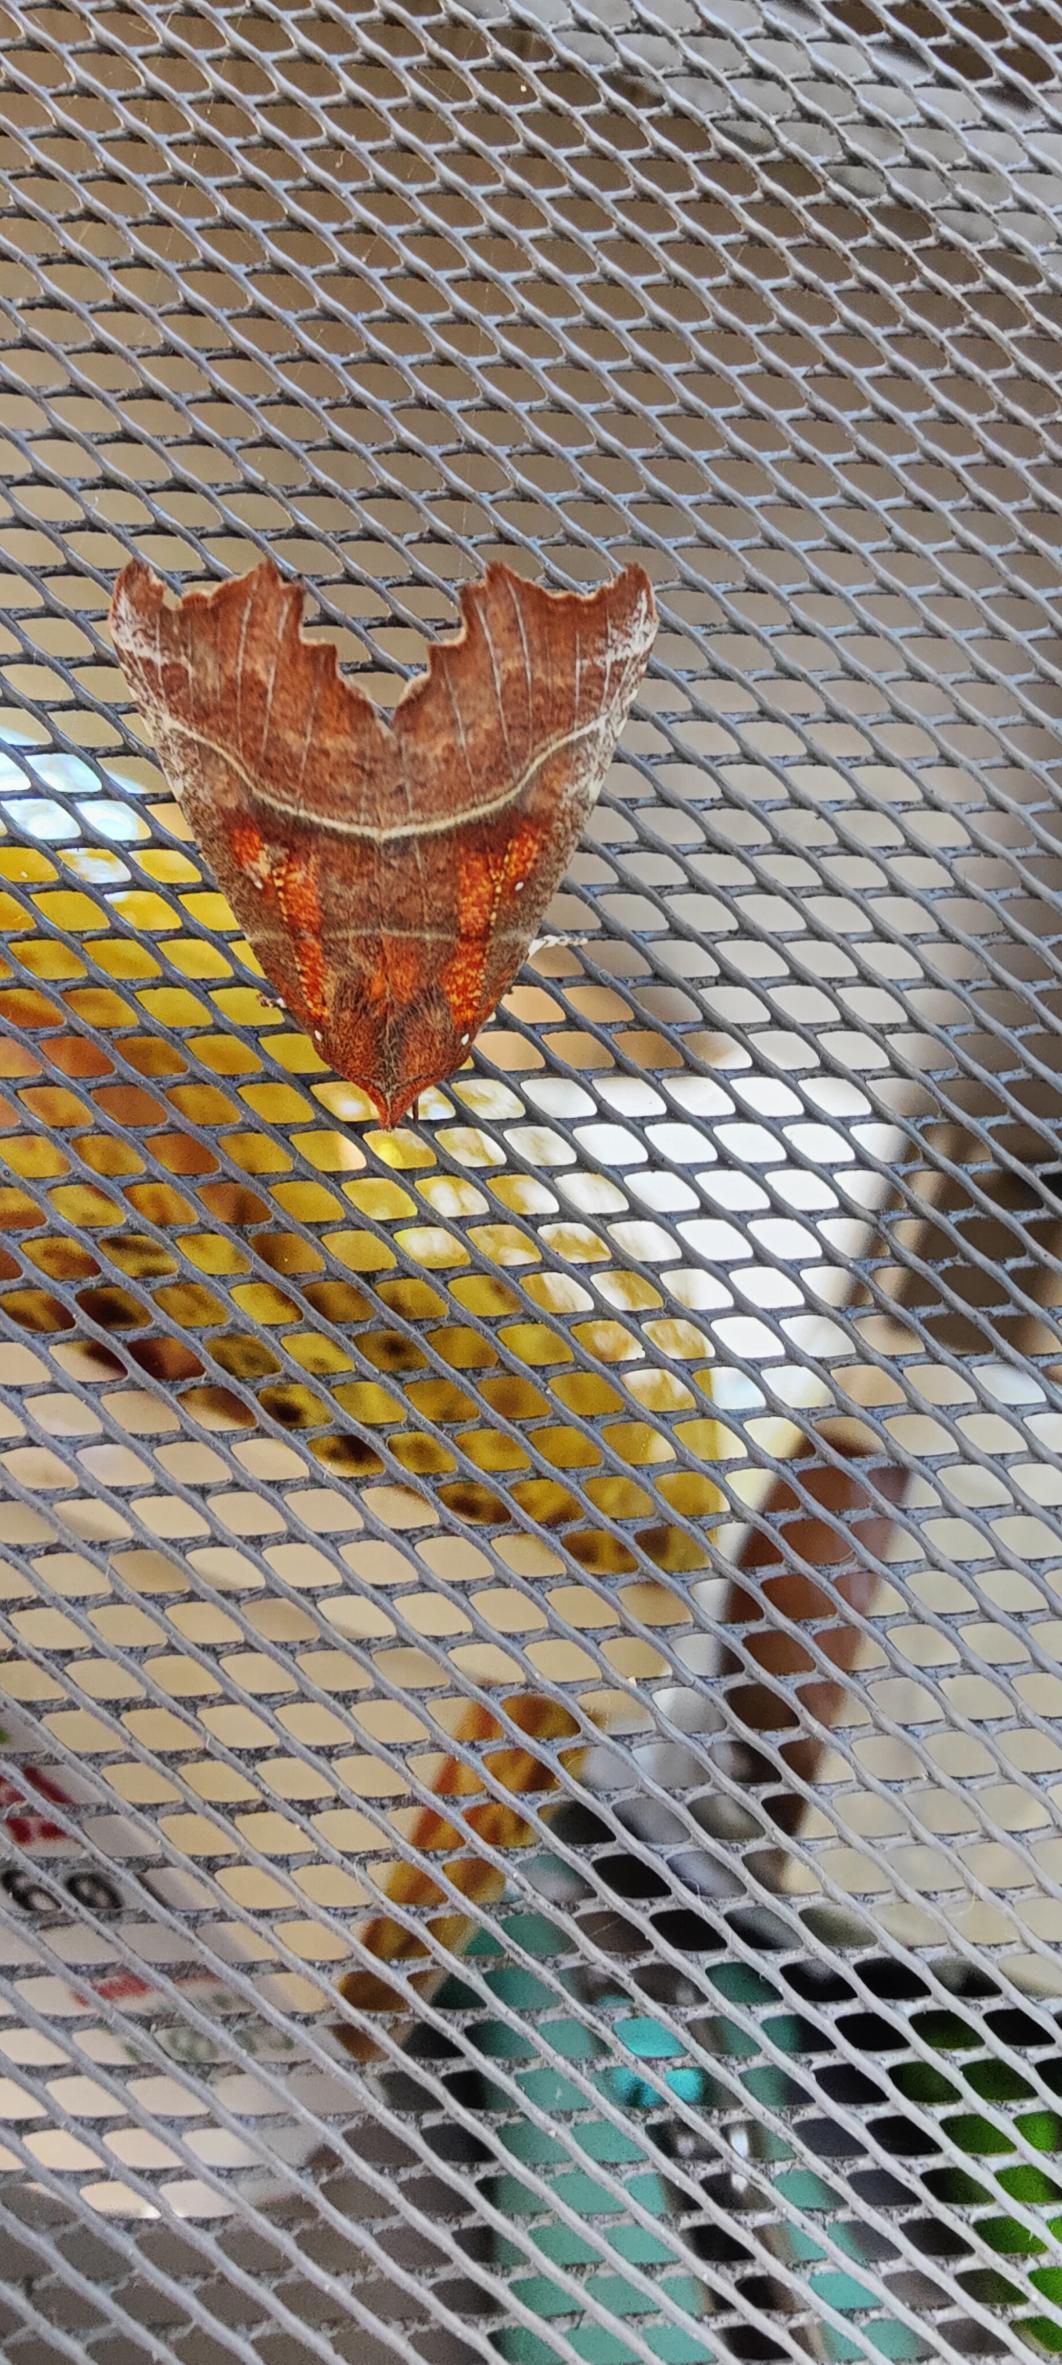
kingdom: Animalia
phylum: Arthropoda
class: Insecta
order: Lepidoptera
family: Erebidae
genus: Scoliopteryx
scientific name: Scoliopteryx libatrix
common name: Husmoderugle
